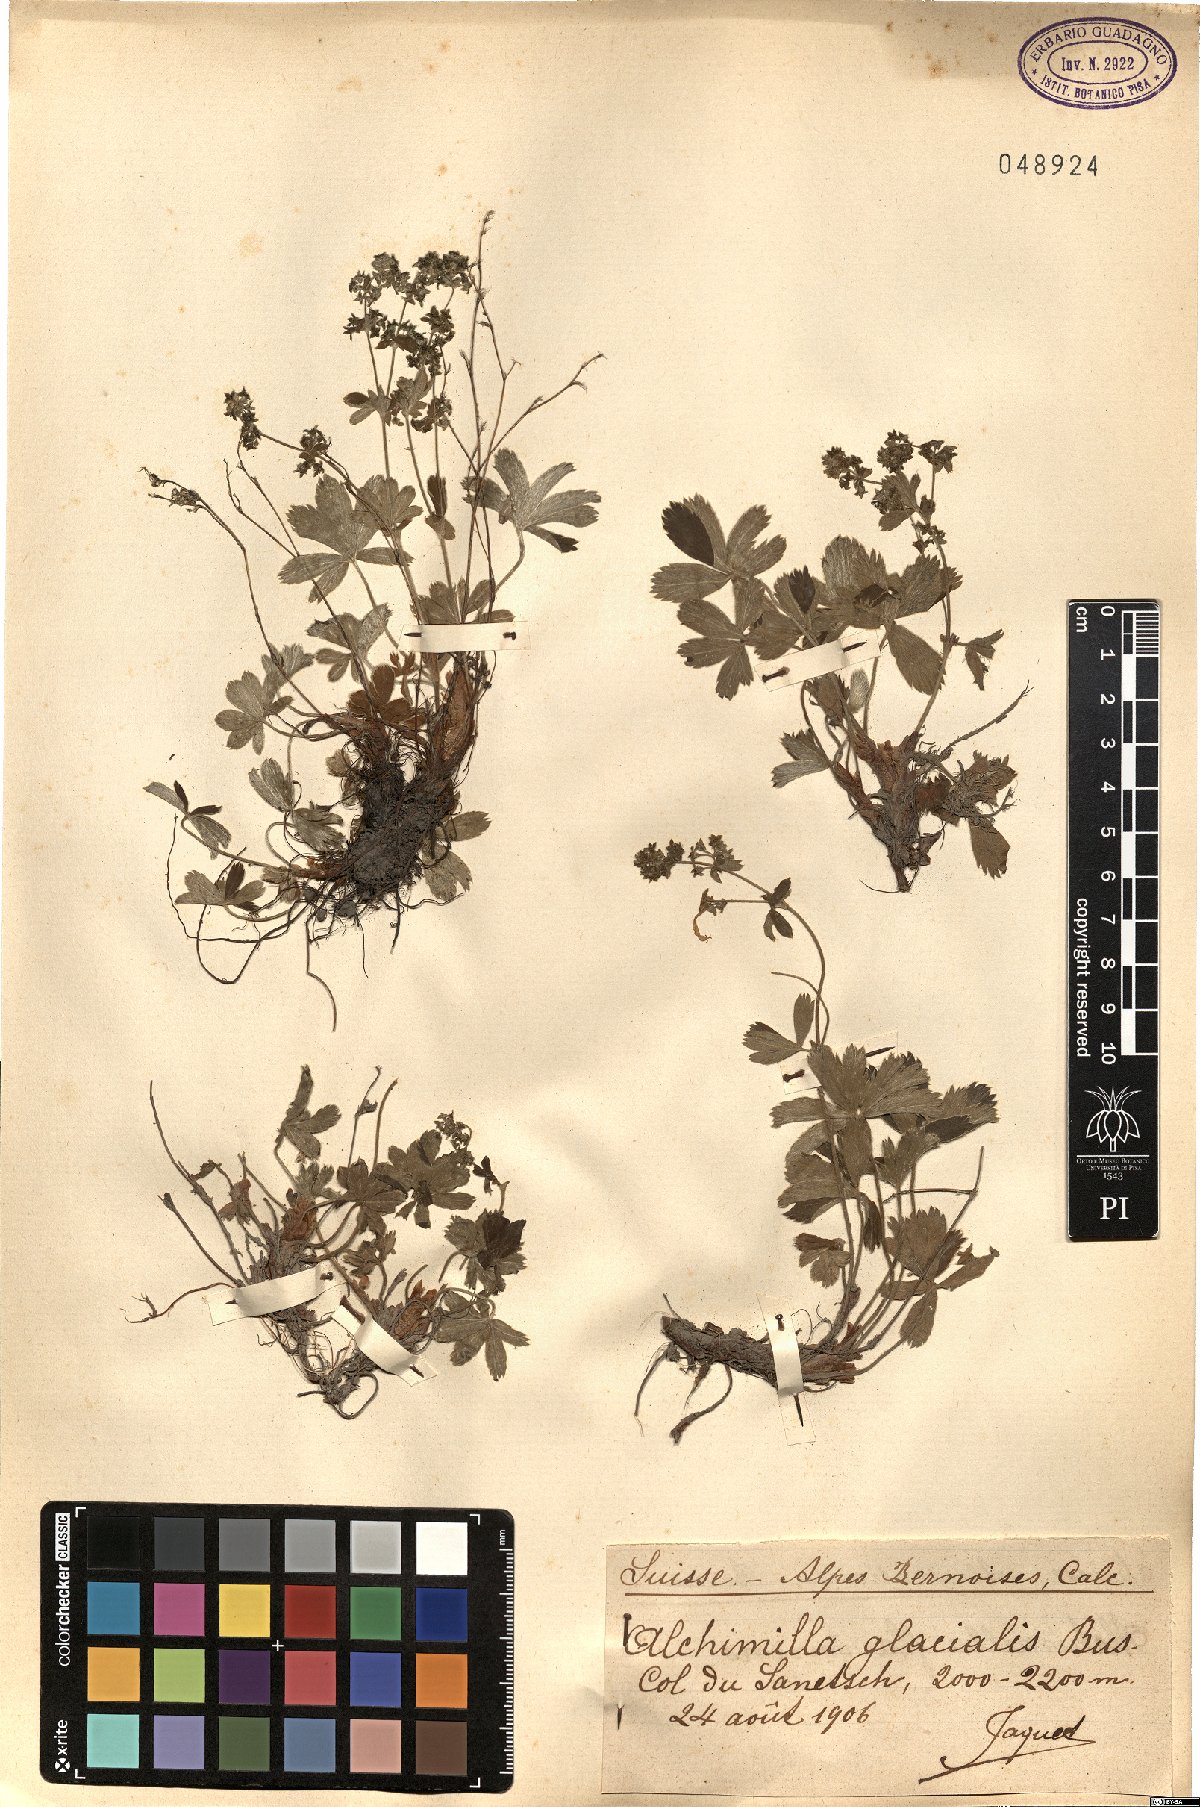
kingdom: Plantae
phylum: Tracheophyta
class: Magnoliopsida
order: Rosales
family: Rosaceae
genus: Alchemilla
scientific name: Alchemilla glacialis
